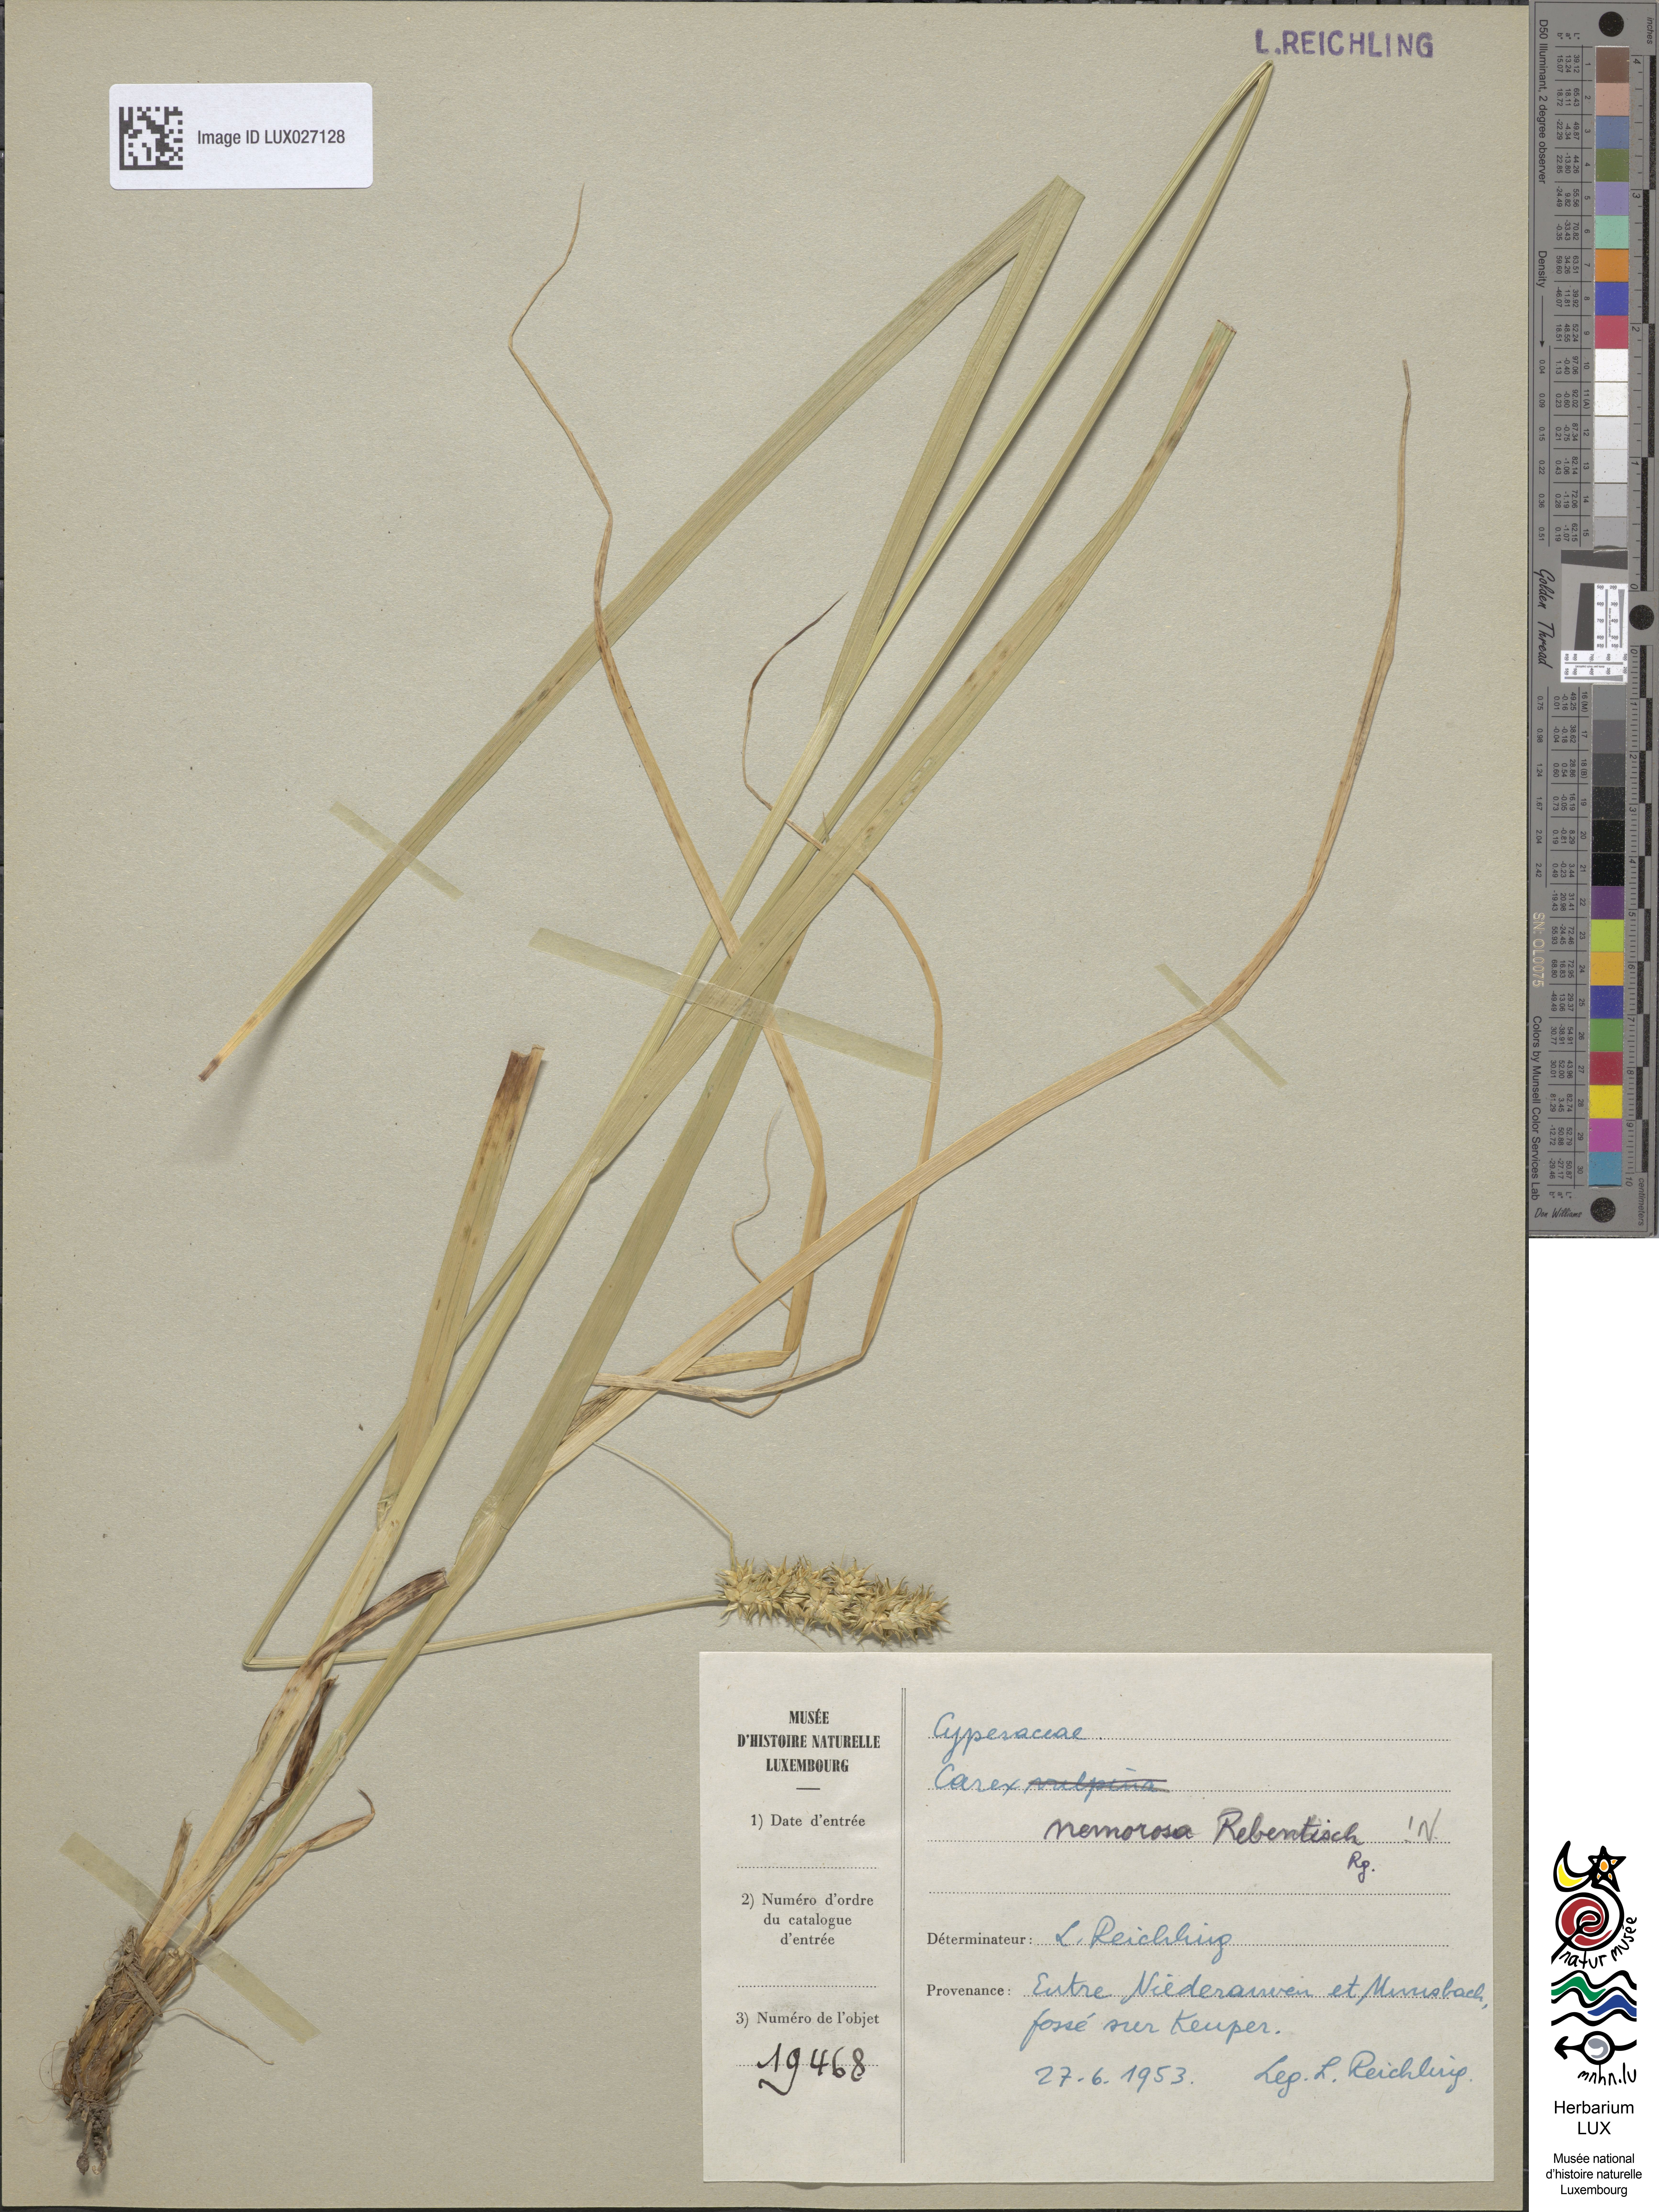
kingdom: Plantae
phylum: Tracheophyta
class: Liliopsida
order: Poales
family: Cyperaceae
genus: Carex
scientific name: Carex leersii
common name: Leers' sedge
